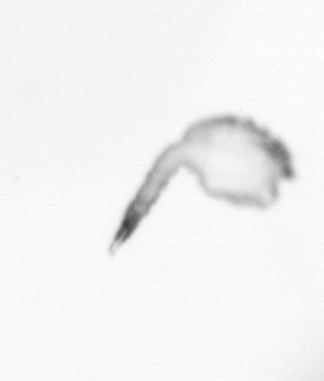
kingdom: Animalia
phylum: Arthropoda
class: Copepoda
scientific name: Copepoda
